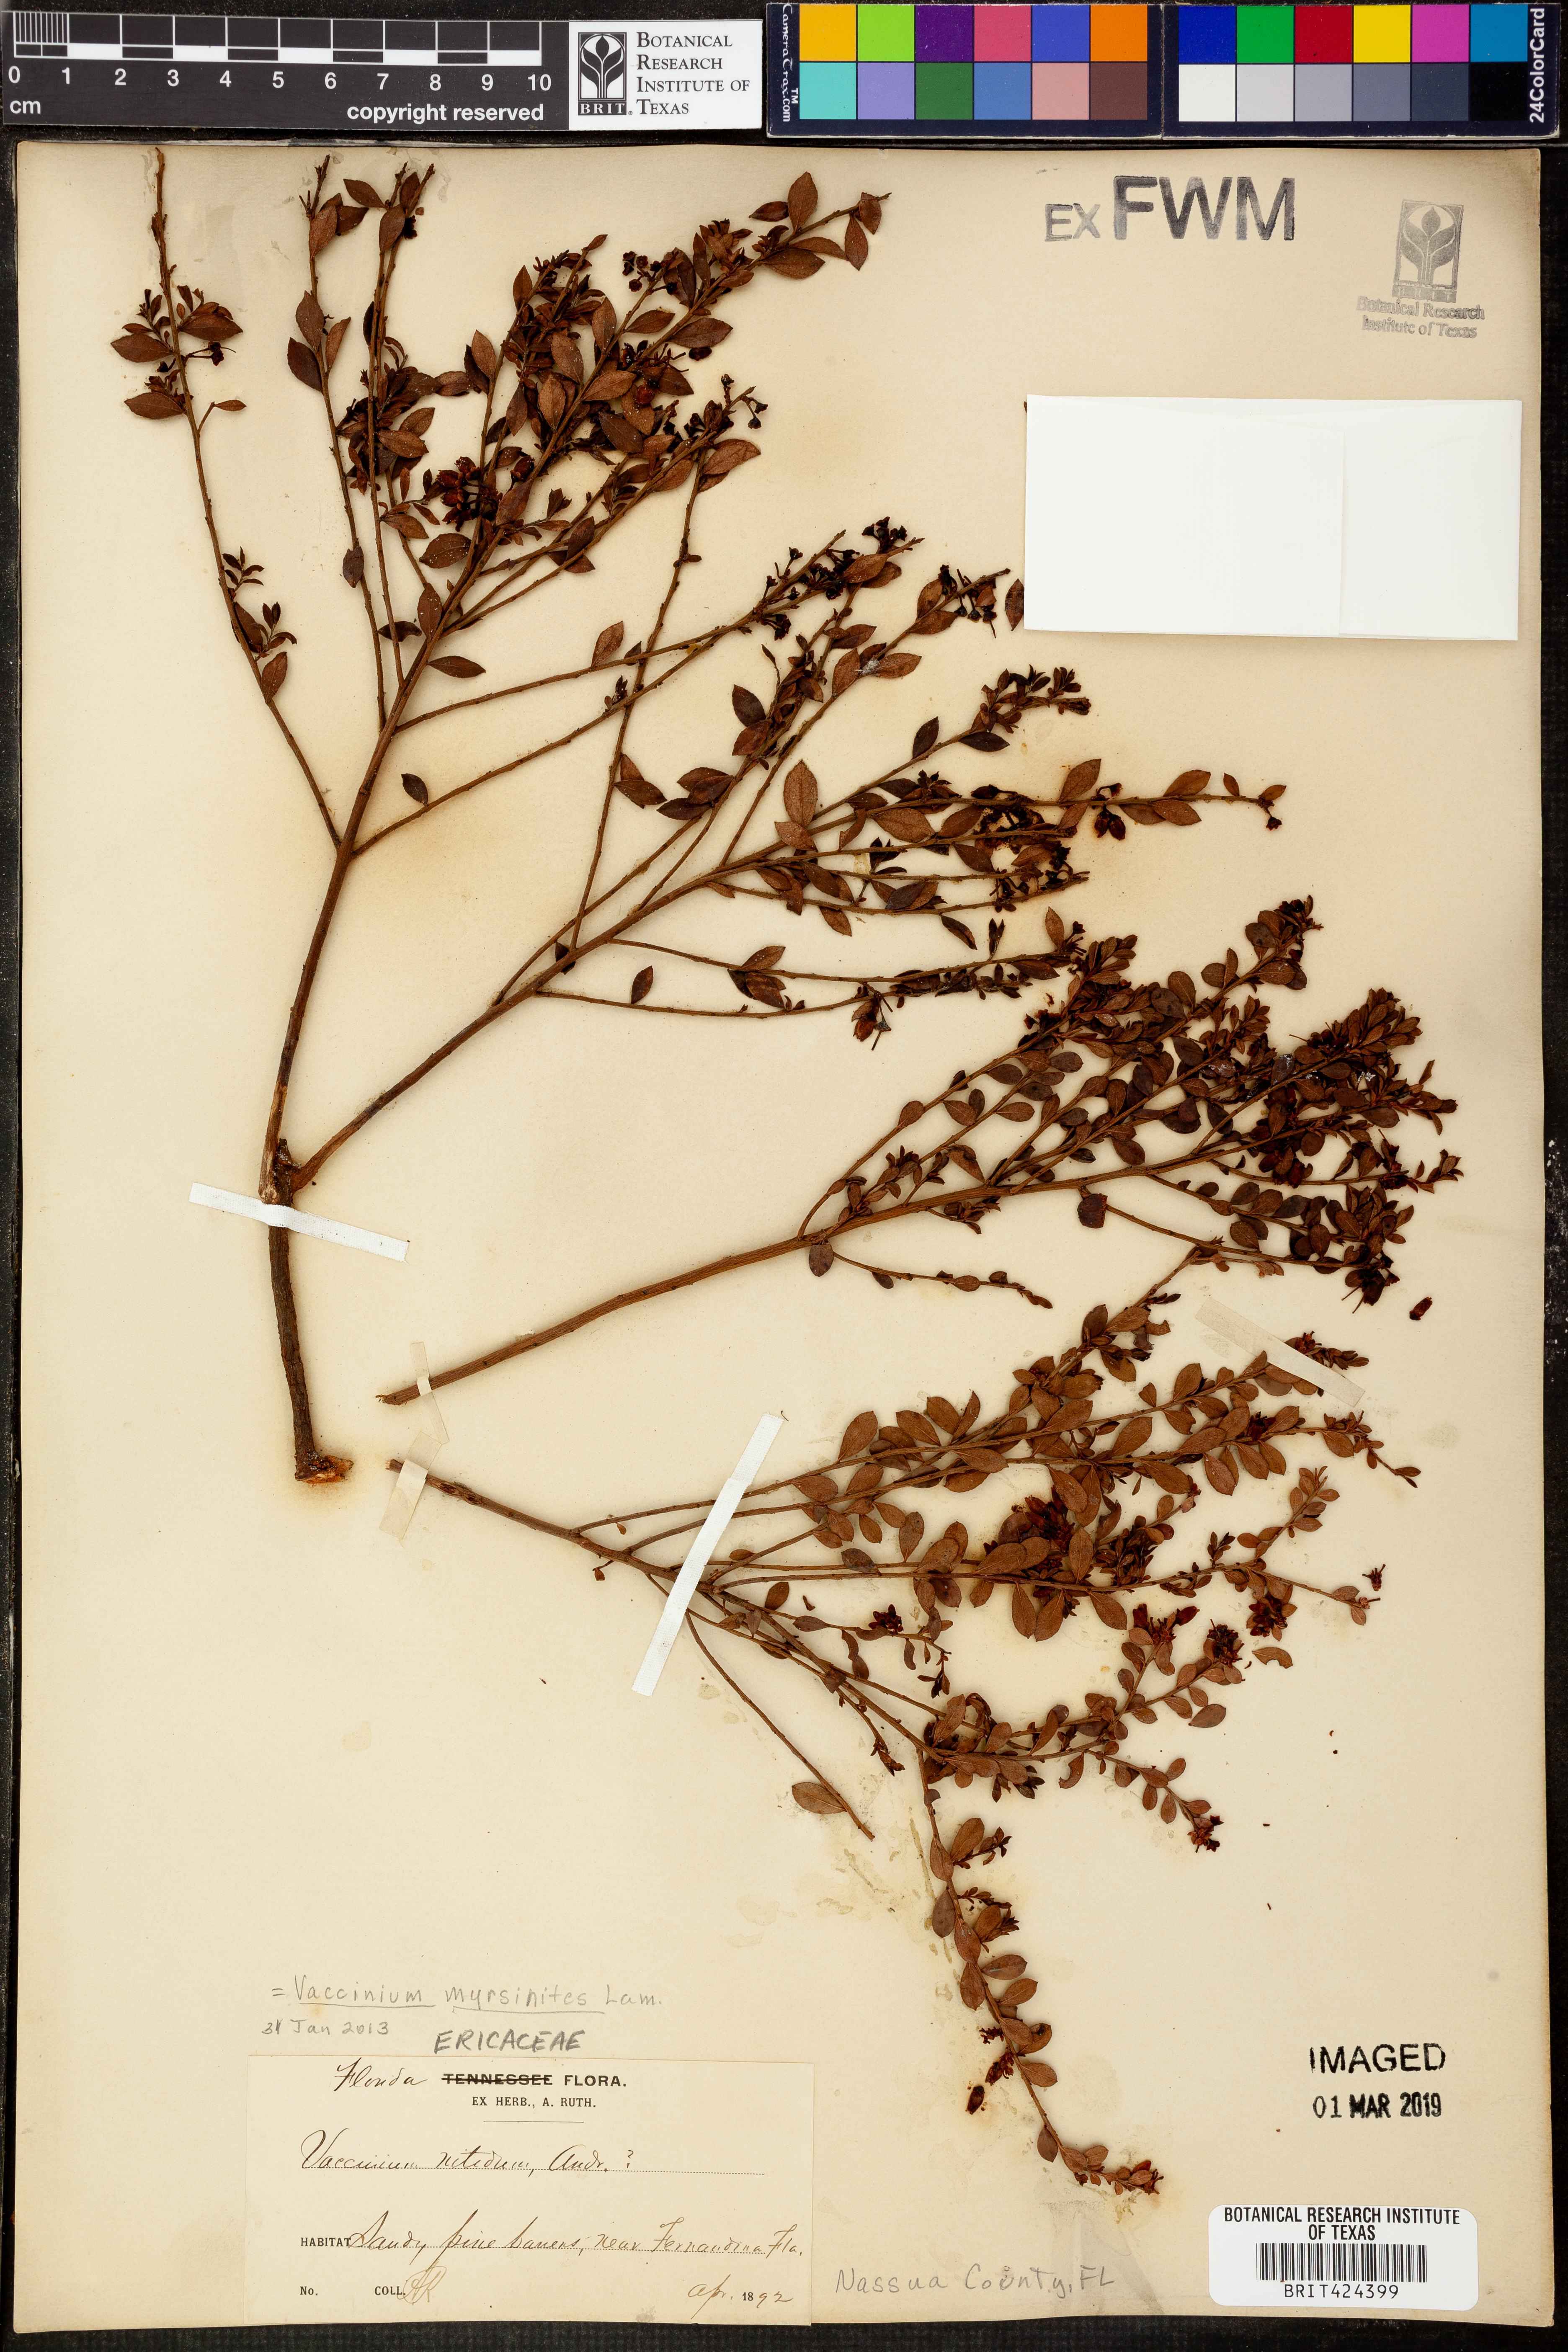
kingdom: Plantae
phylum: Tracheophyta
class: Magnoliopsida
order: Ericales
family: Ericaceae
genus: Vaccinium
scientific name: Vaccinium myrsinites
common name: Evergreen blueberry
